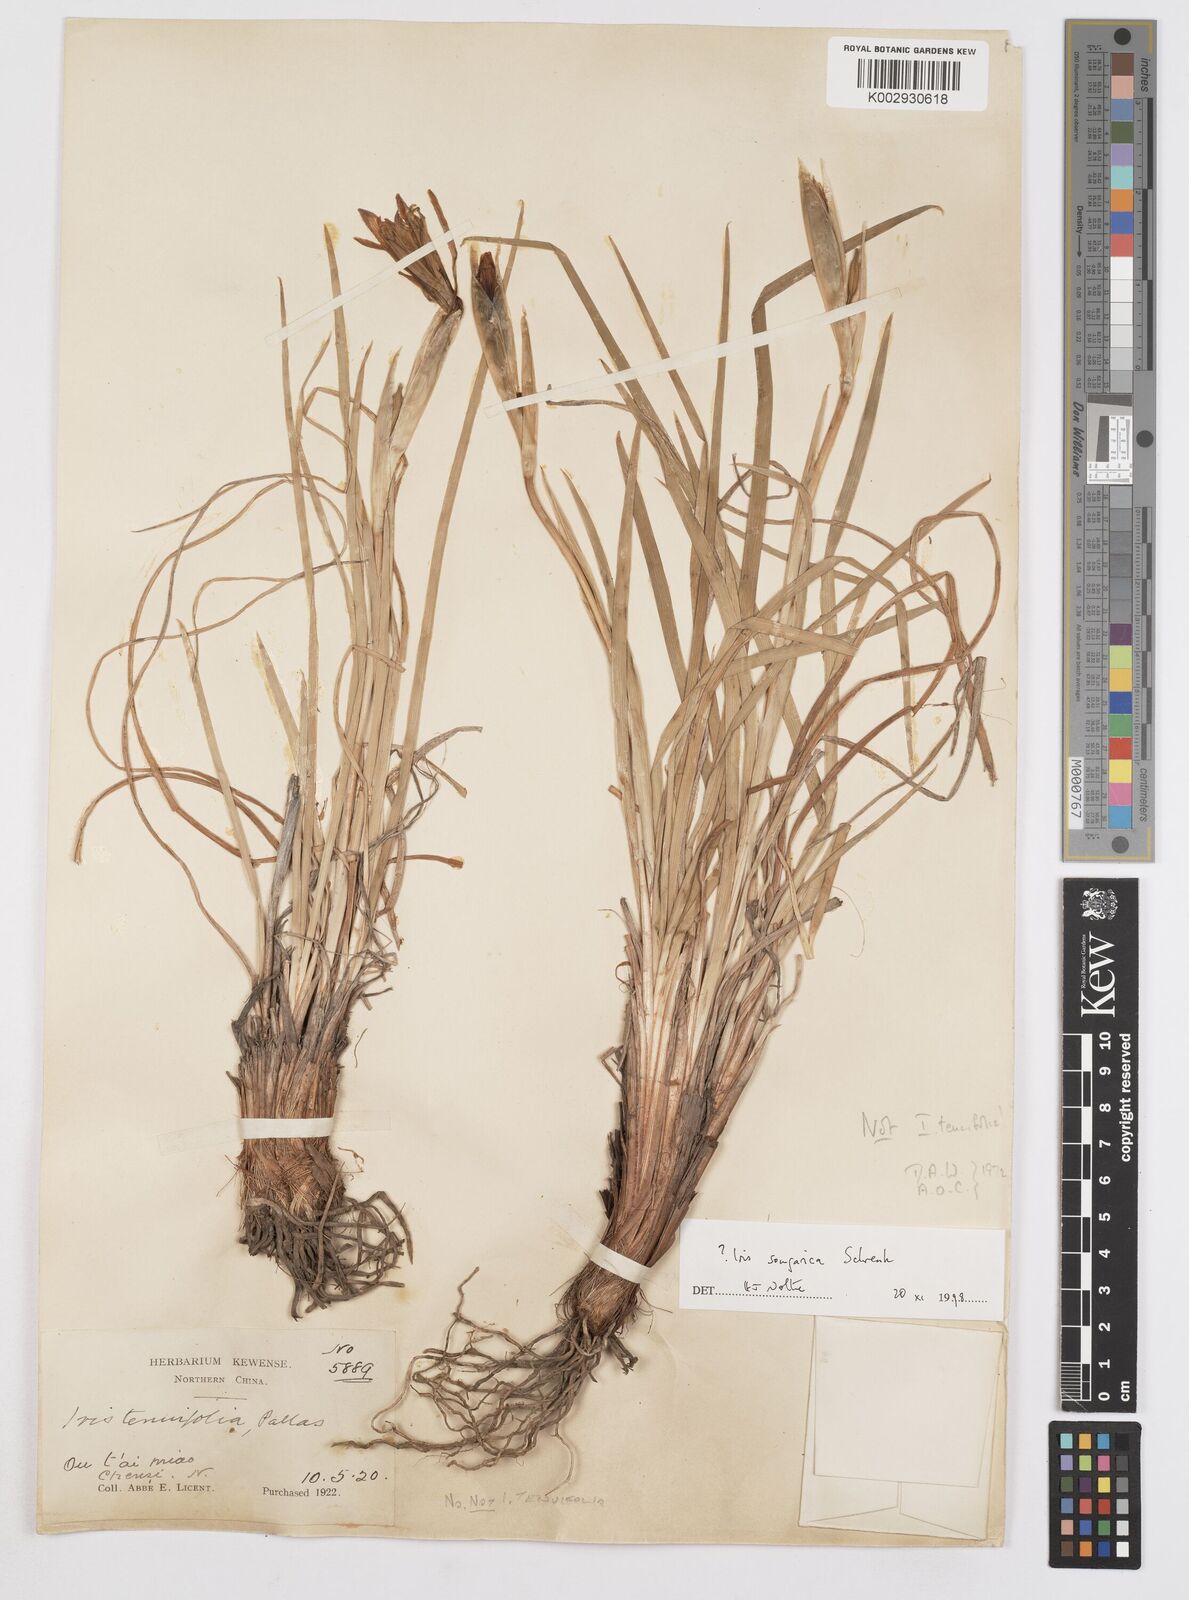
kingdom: Plantae
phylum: Tracheophyta
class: Liliopsida
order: Asparagales
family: Iridaceae
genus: Iris
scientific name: Iris songarica
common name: Songar iris
